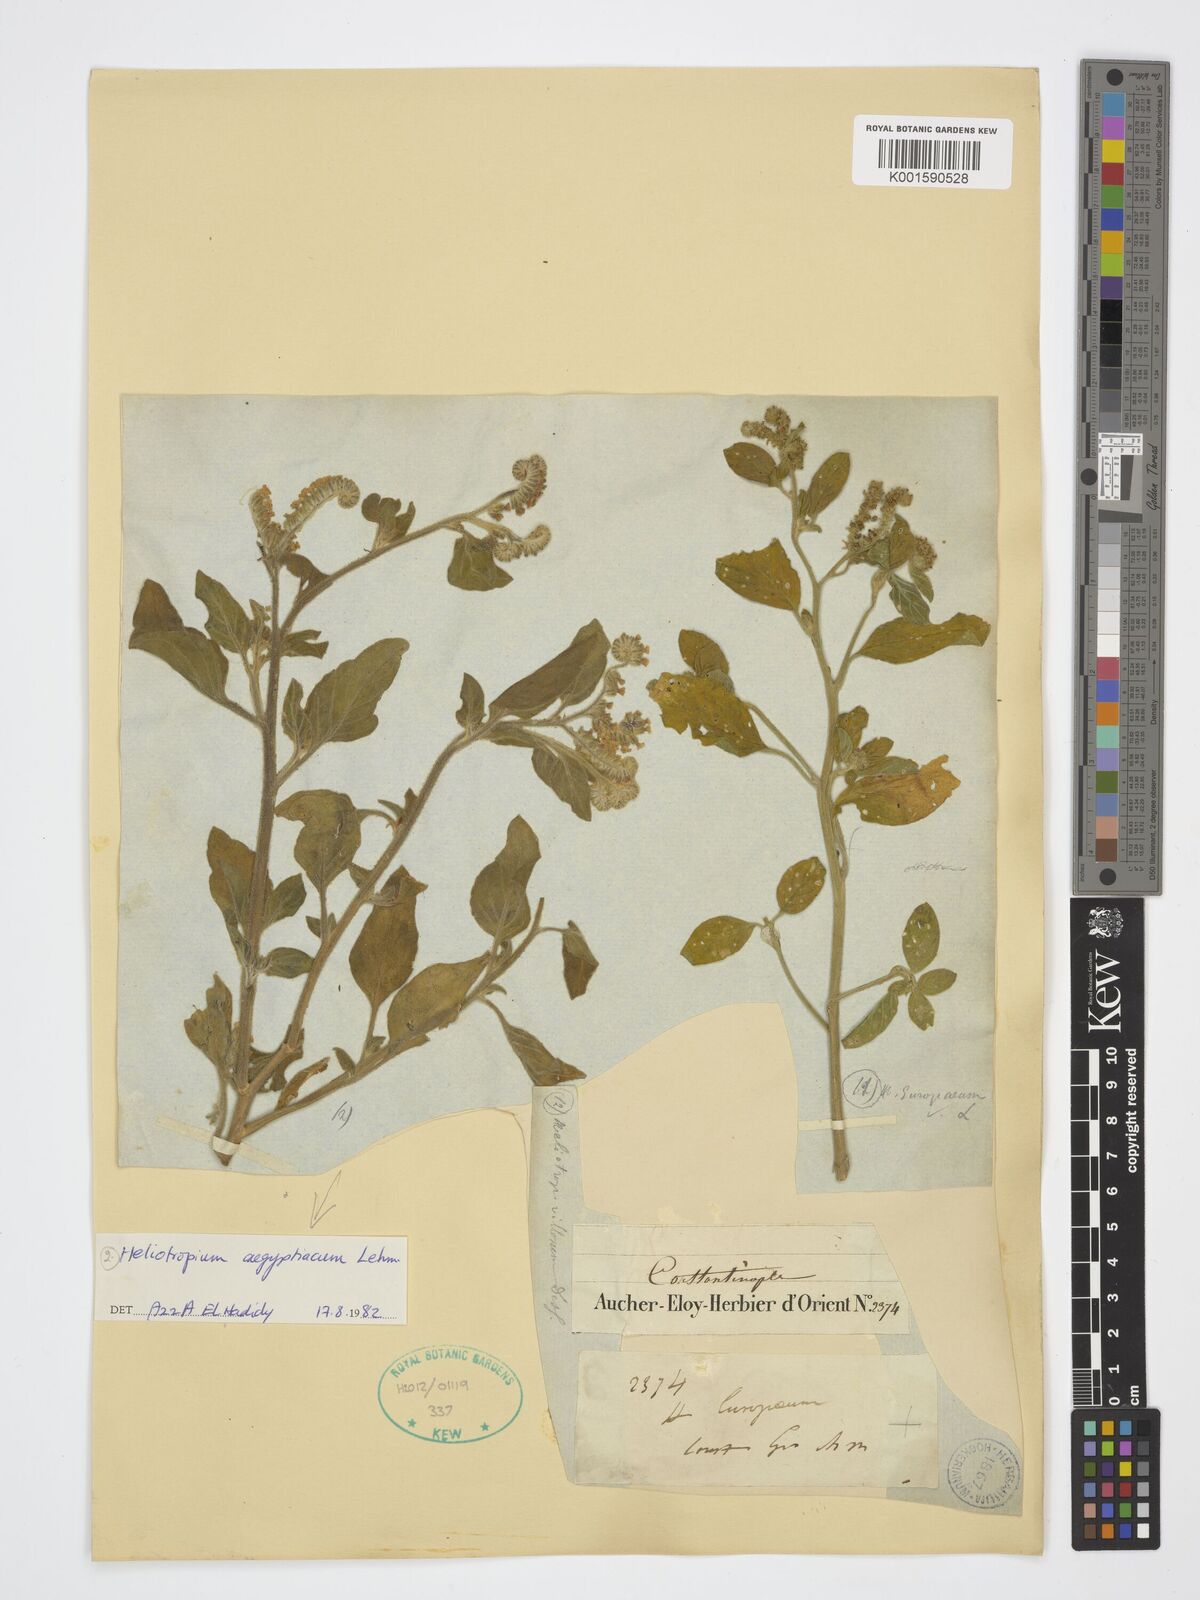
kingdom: Plantae
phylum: Tracheophyta
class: Magnoliopsida
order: Boraginales
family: Heliotropiaceae
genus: Heliotropium
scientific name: Heliotropium aegyptiacum
